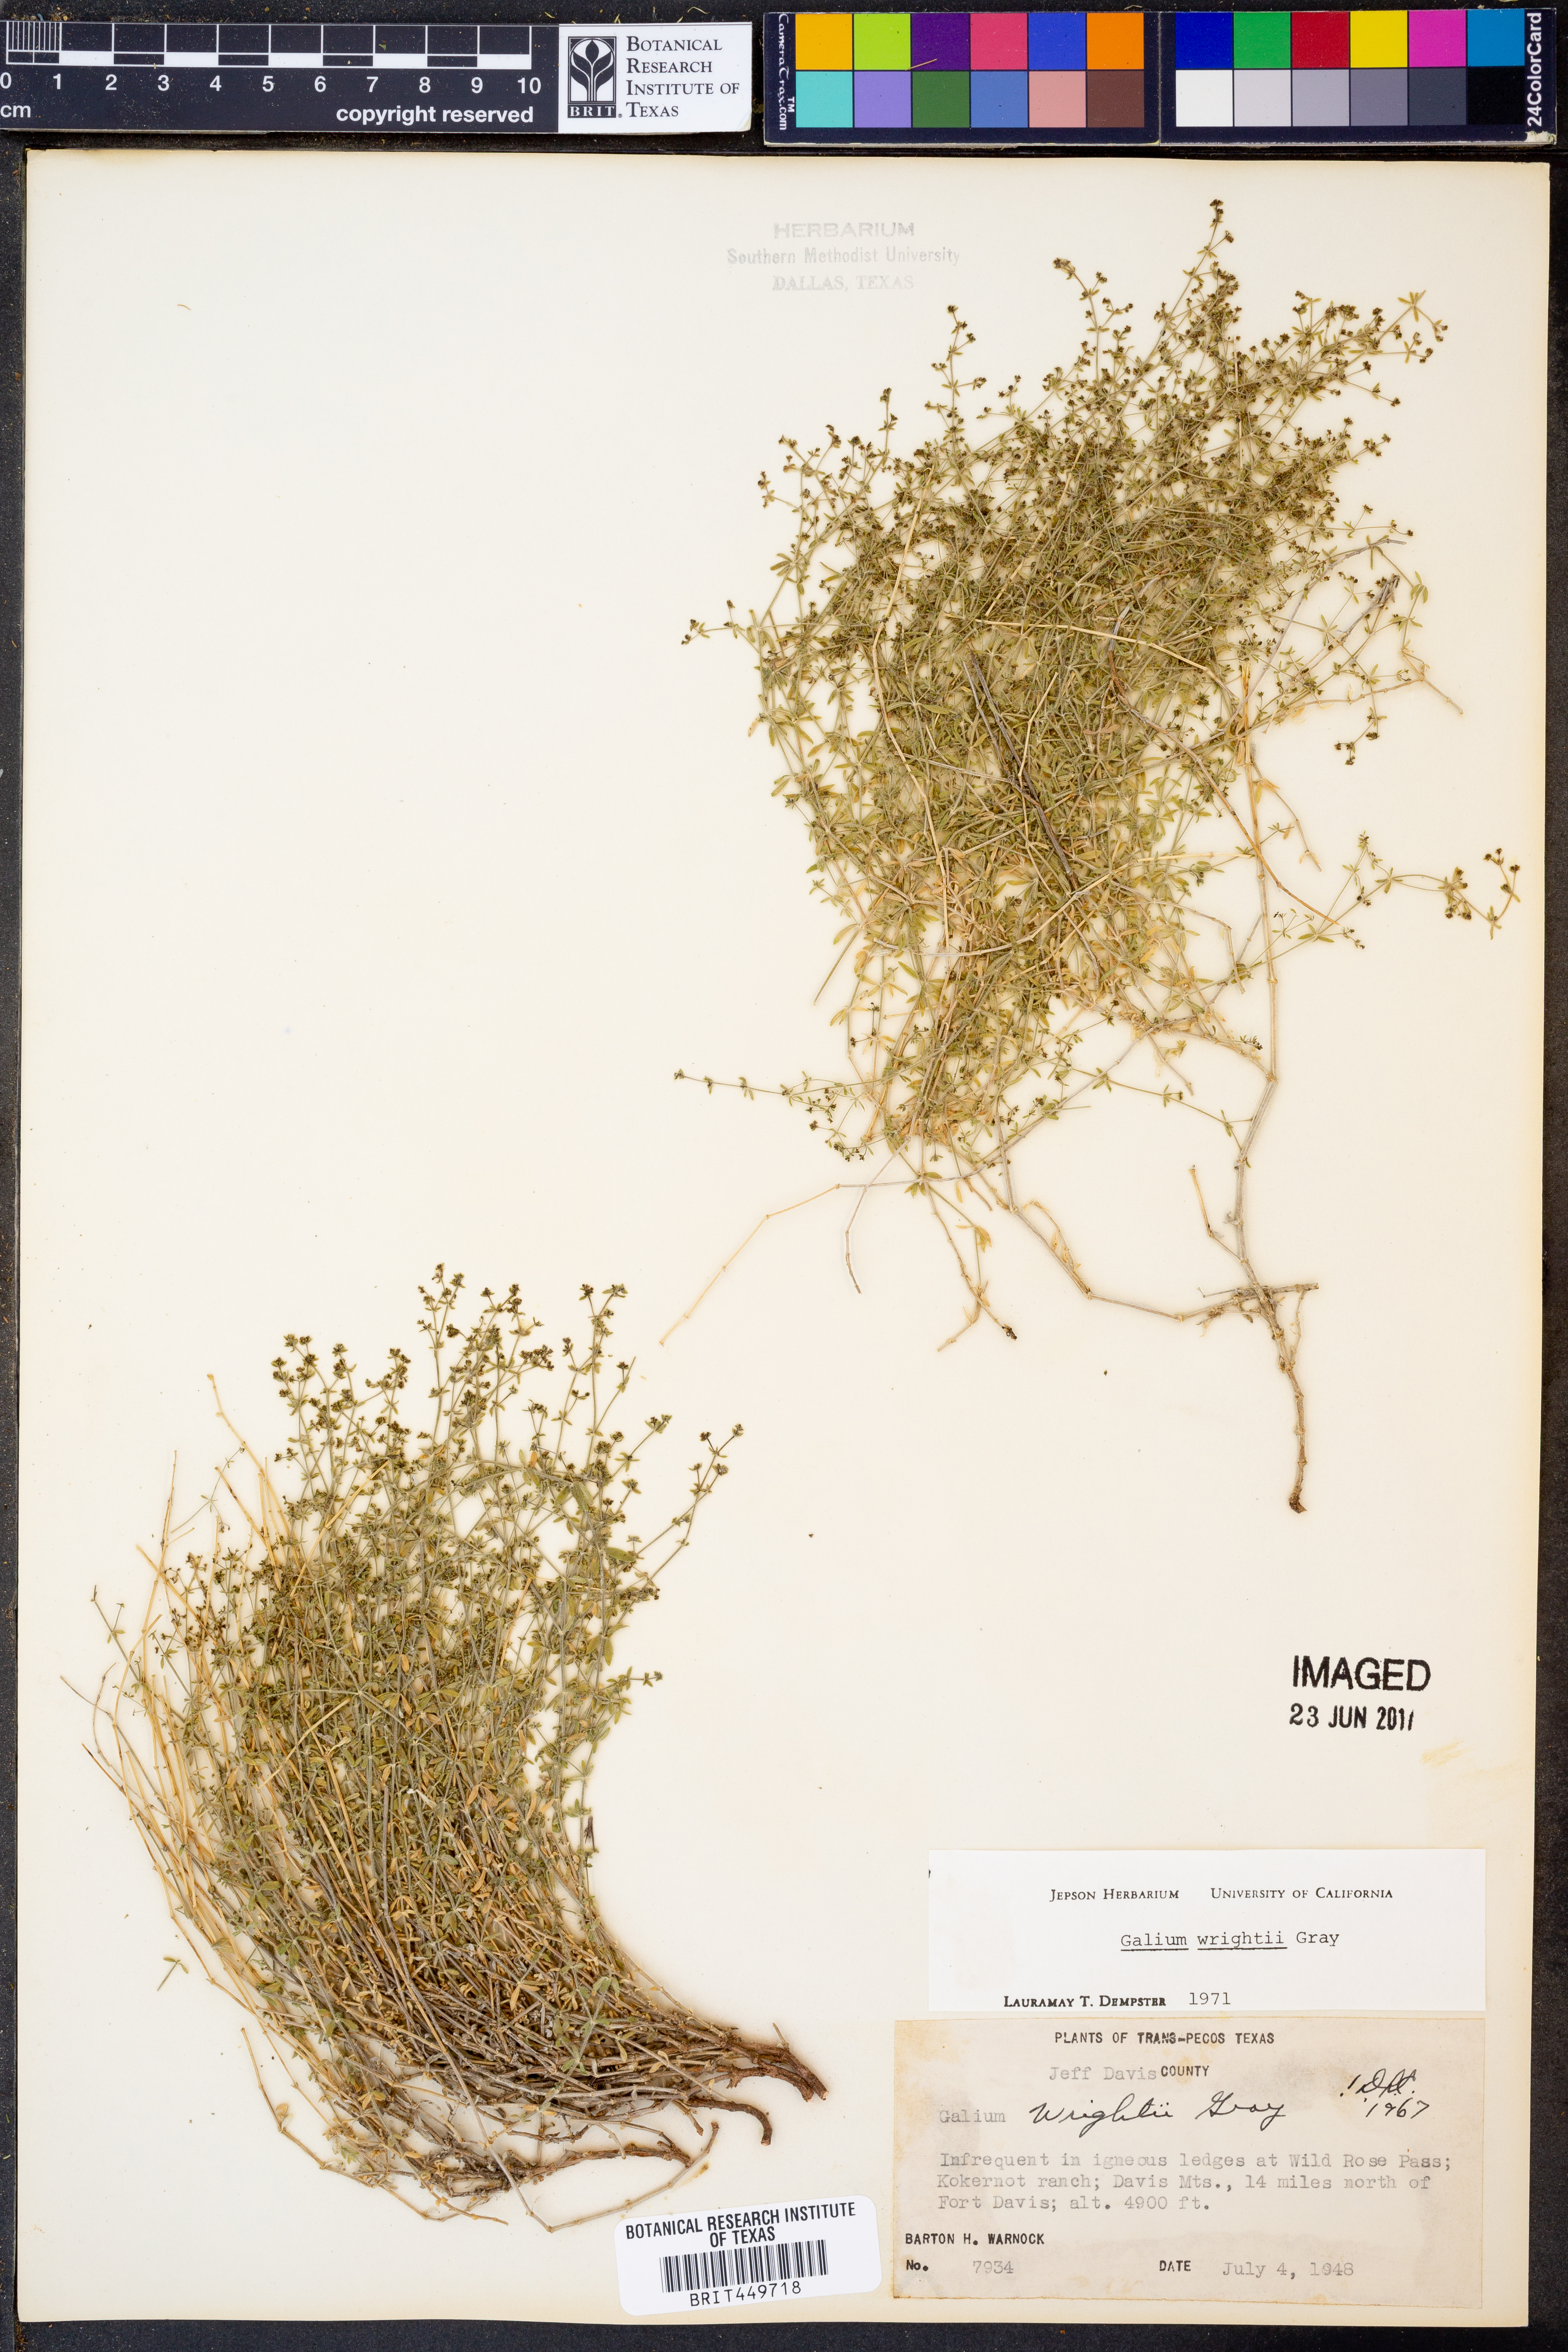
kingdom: Plantae
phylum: Tracheophyta
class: Magnoliopsida
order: Gentianales
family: Rubiaceae
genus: Galium
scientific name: Galium wrightii
